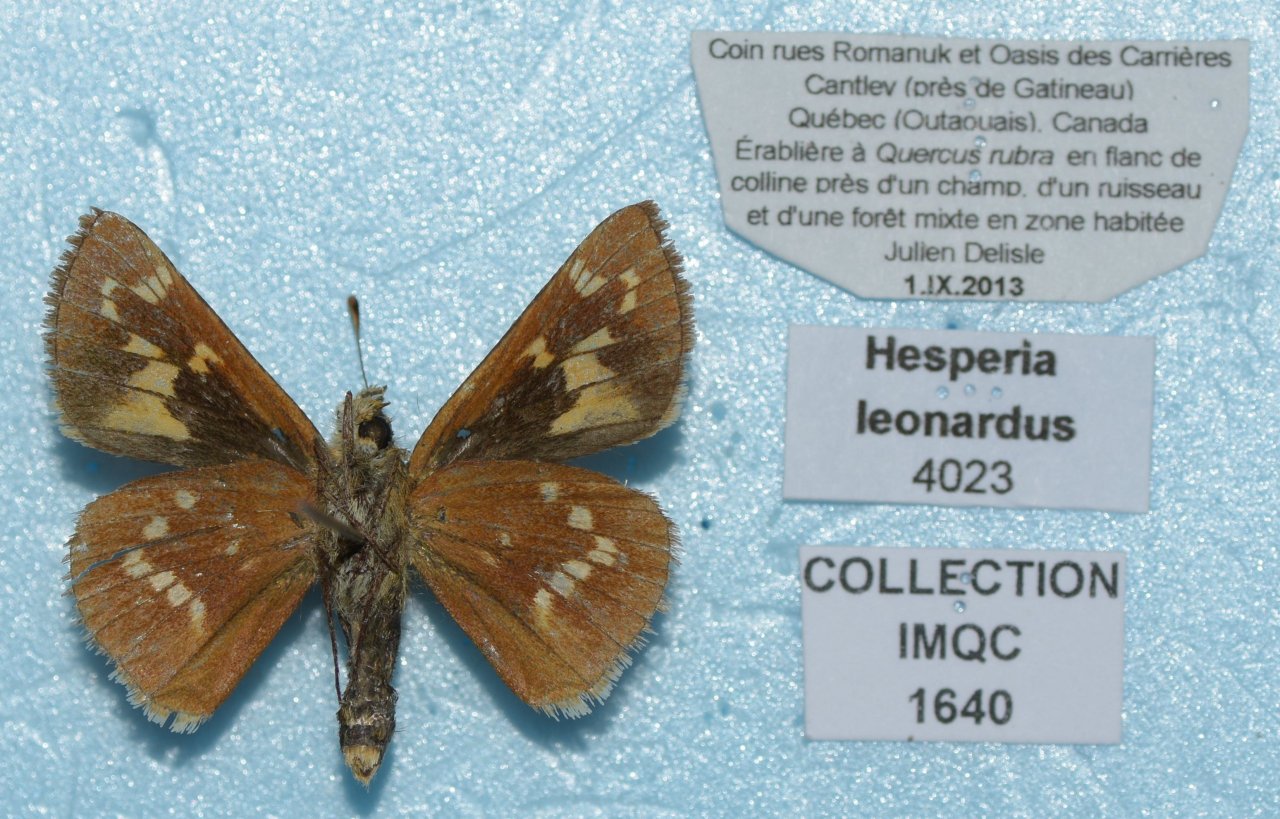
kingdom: Animalia
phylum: Arthropoda
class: Insecta
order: Lepidoptera
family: Hesperiidae
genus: Hesperia
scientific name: Hesperia leonardus
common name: Leonard's Skipper
